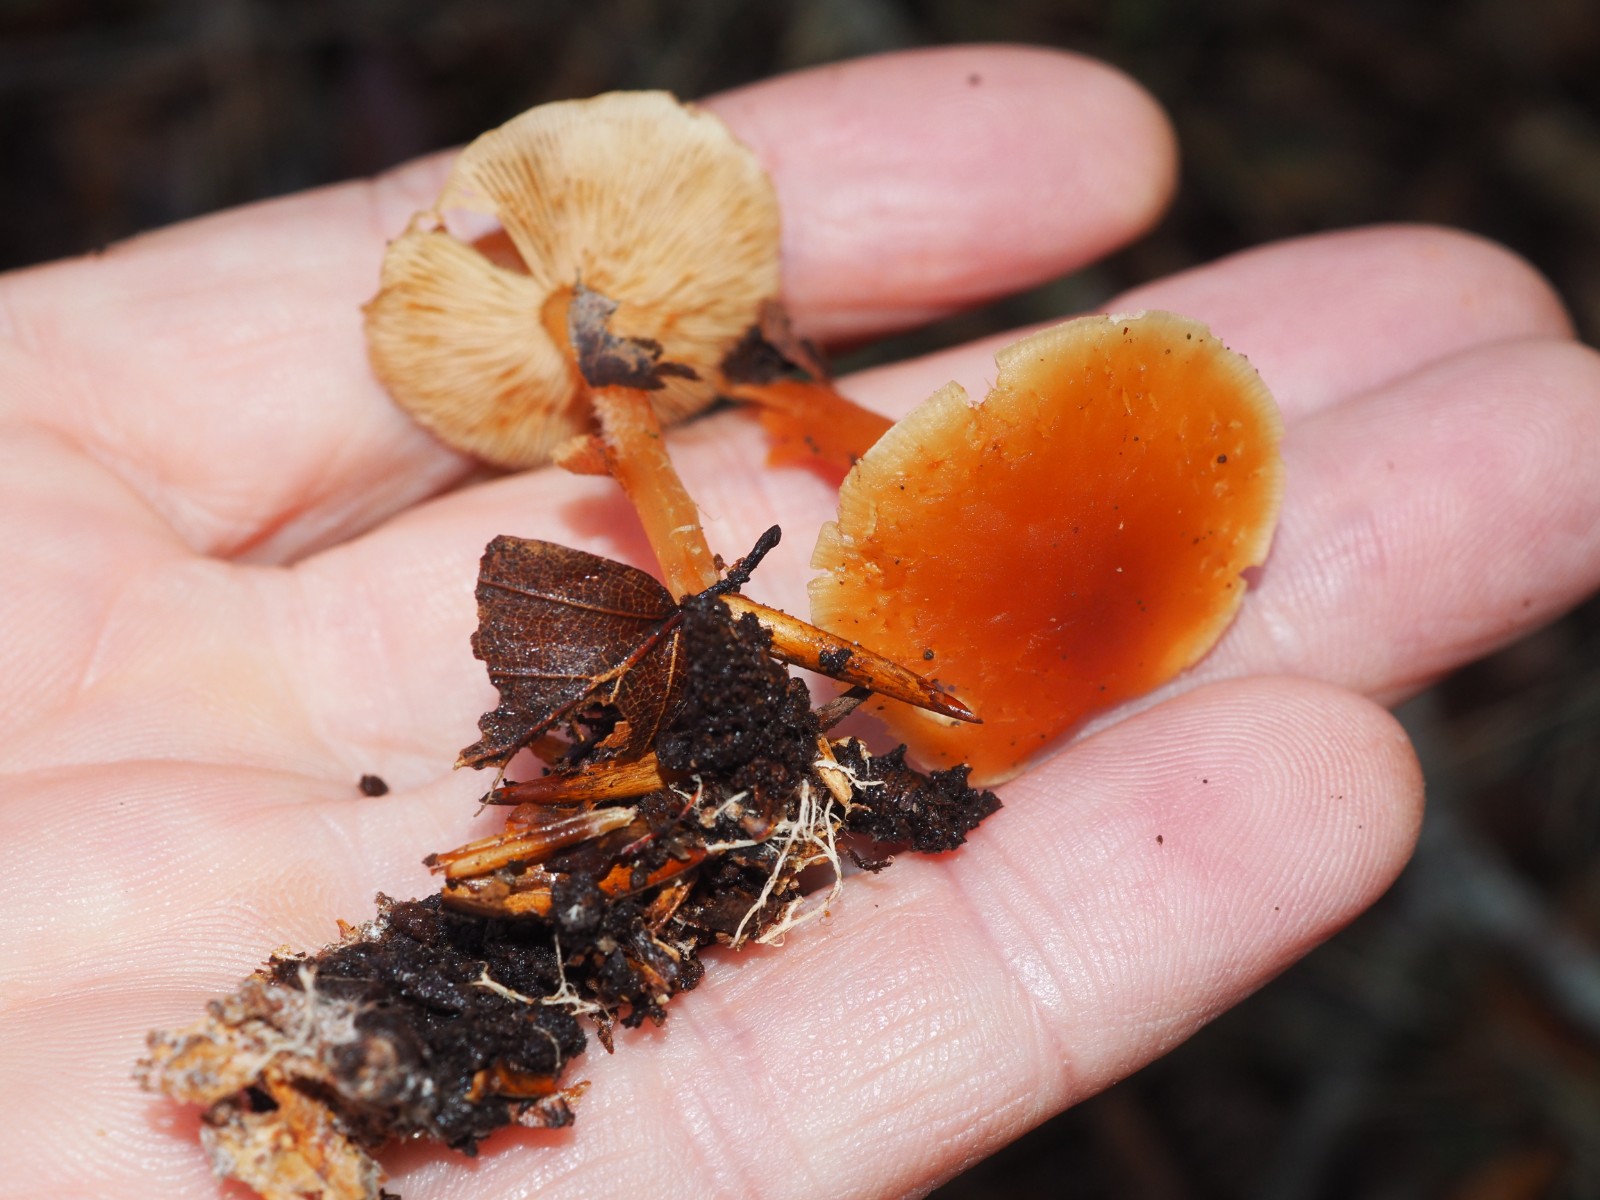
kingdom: Fungi
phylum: Basidiomycota
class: Agaricomycetes
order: Agaricales
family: Omphalotaceae
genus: Gymnopus
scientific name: Gymnopus dryophilus
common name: løv-fladhat
